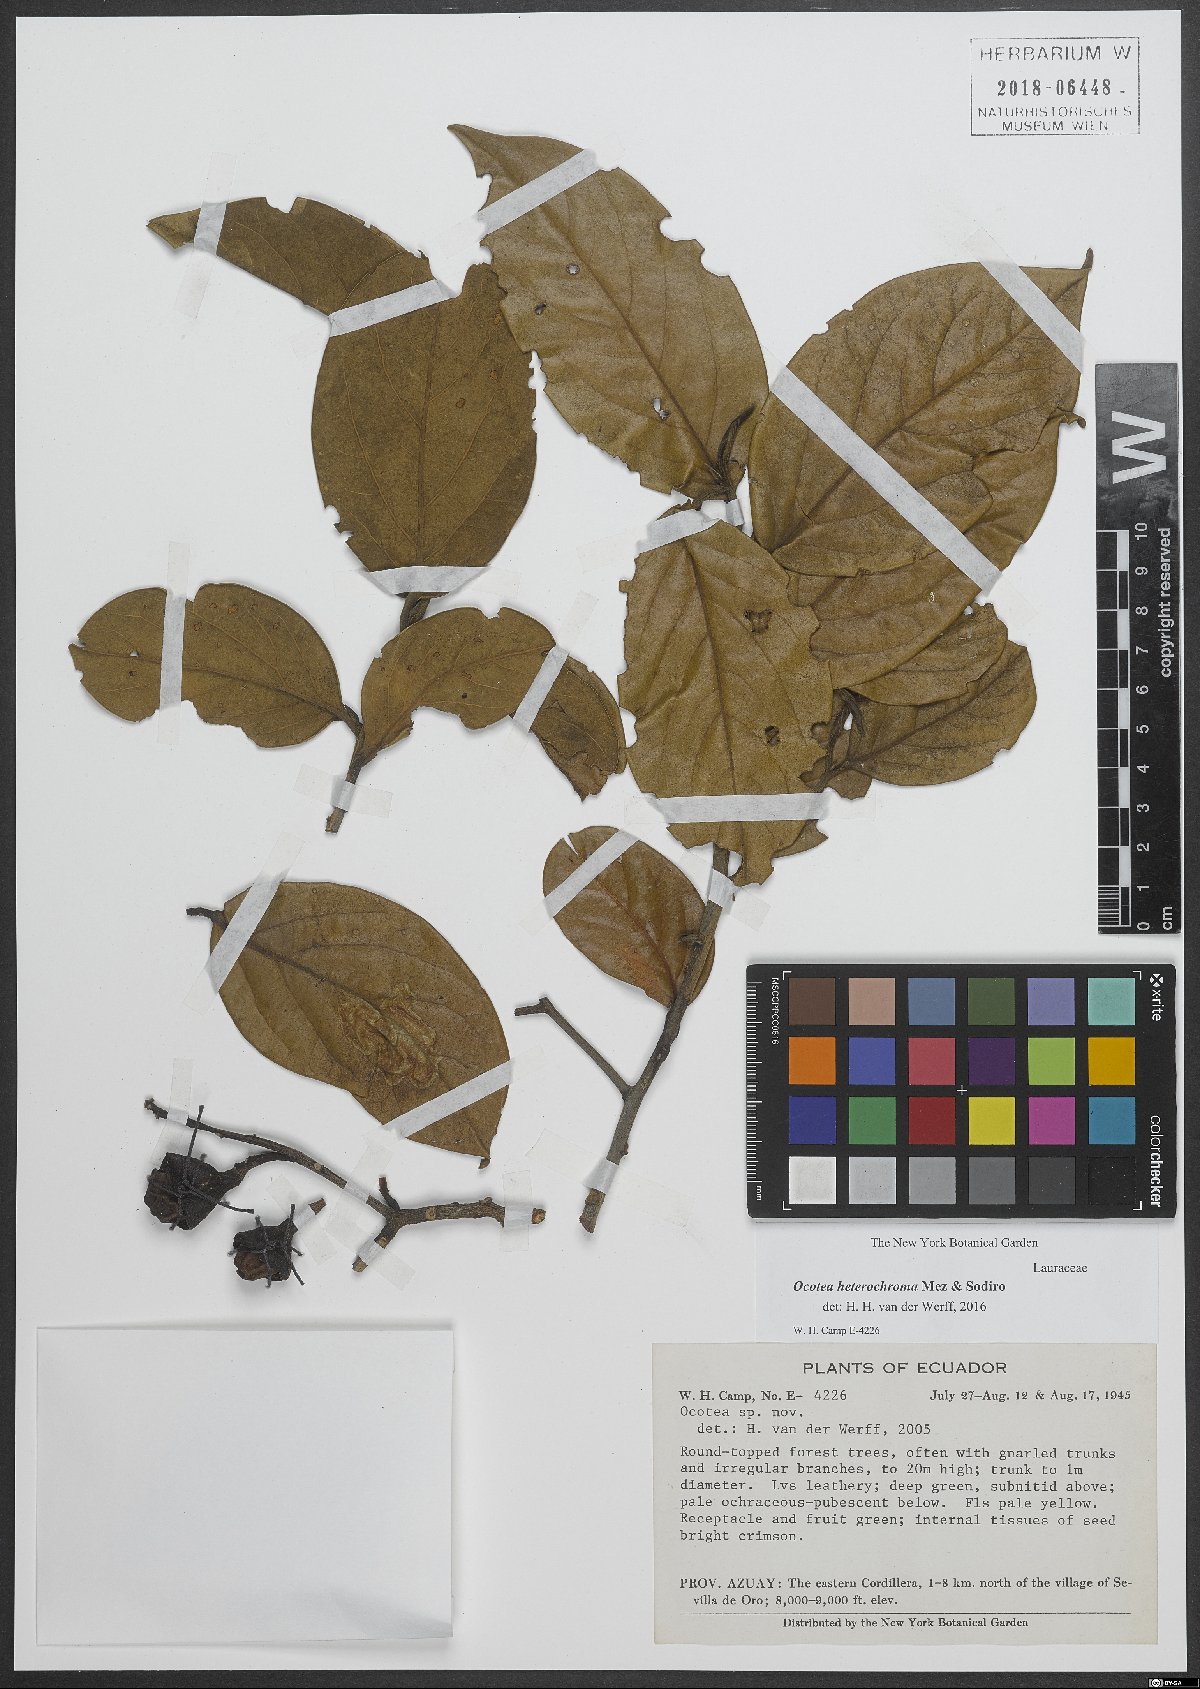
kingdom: Plantae
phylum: Tracheophyta
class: Magnoliopsida
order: Laurales
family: Lauraceae
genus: Ocotea
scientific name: Ocotea heterochroma
